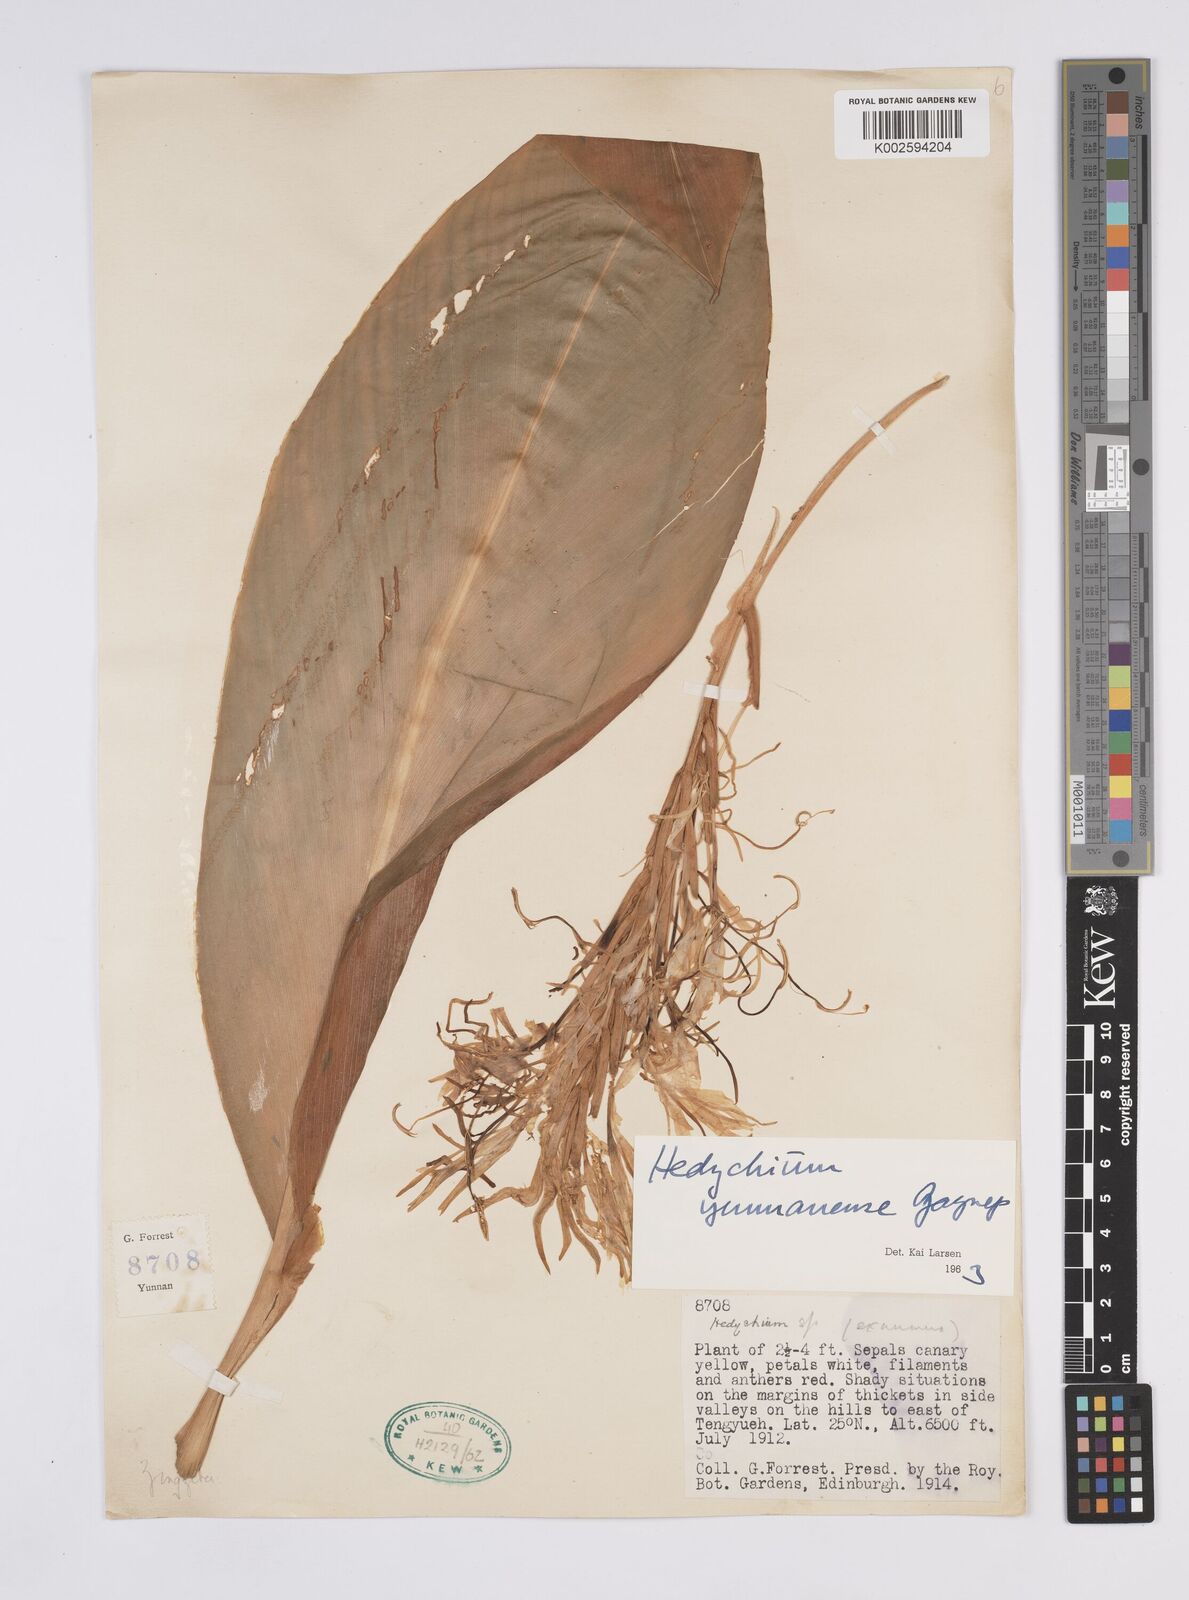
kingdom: Plantae
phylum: Tracheophyta
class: Liliopsida
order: Zingiberales
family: Zingiberaceae
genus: Hedychium
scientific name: Hedychium yunnanense
